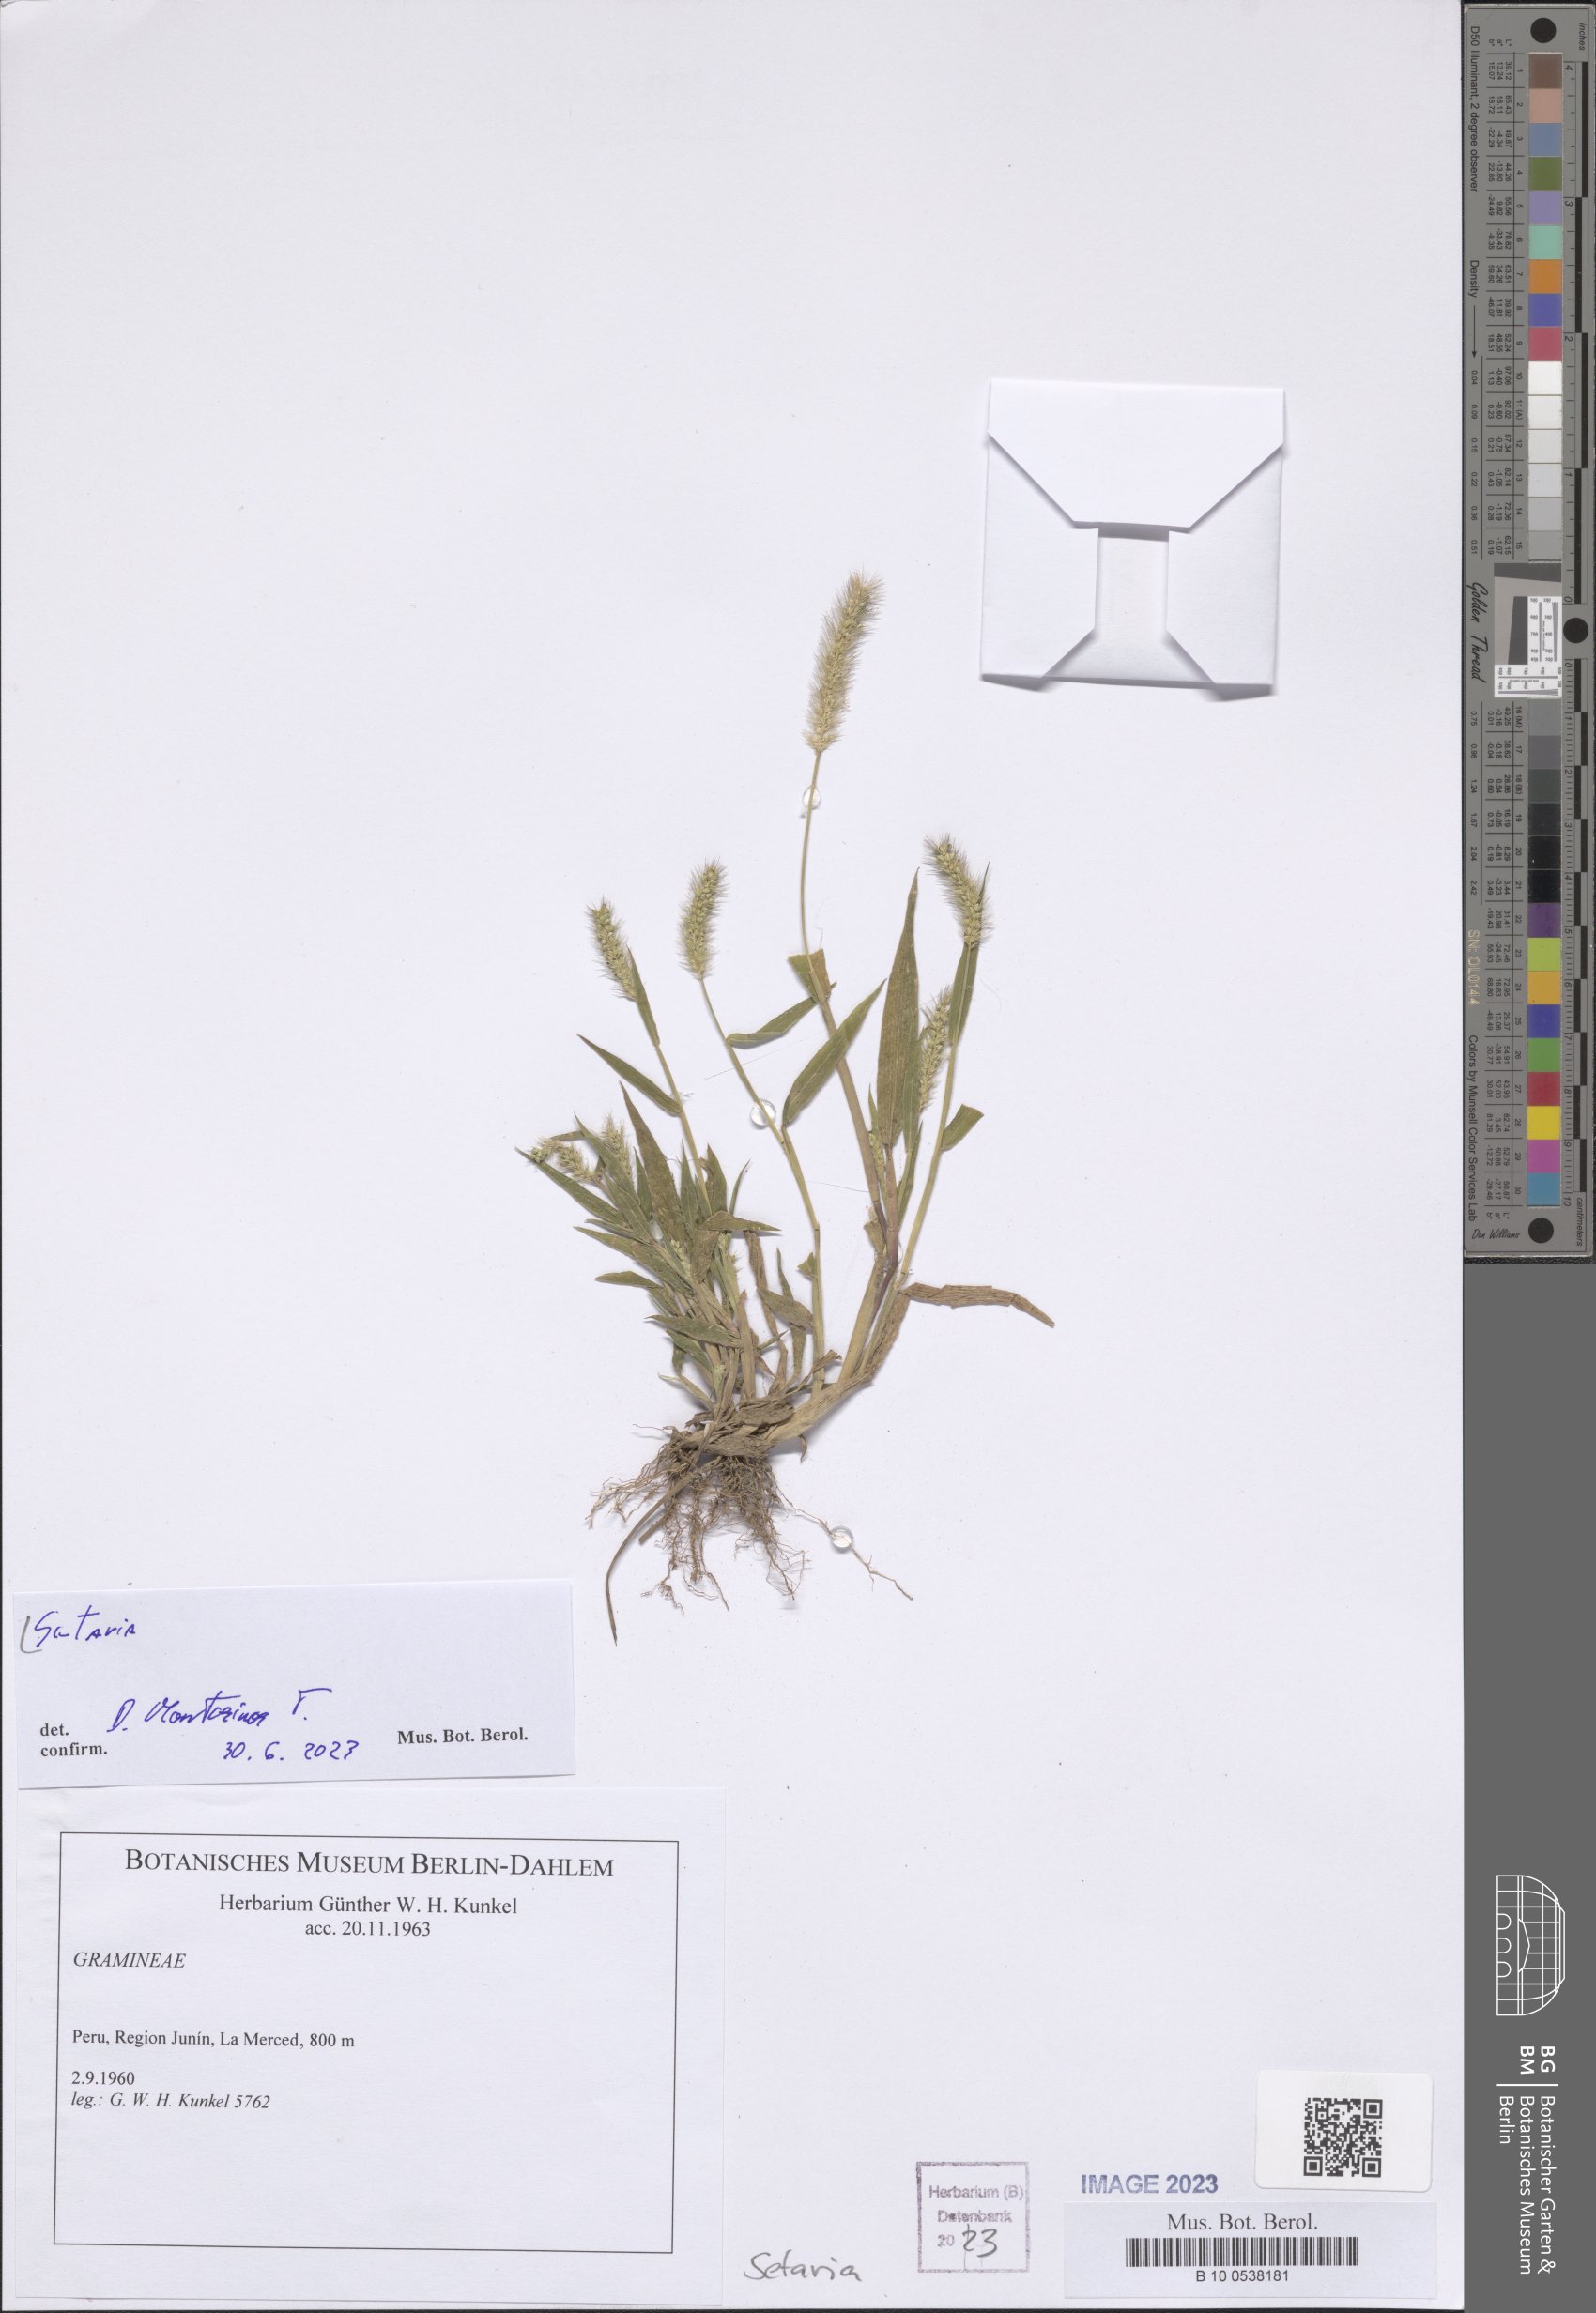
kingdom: Plantae
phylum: Tracheophyta
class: Liliopsida
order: Poales
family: Poaceae
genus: Setaria
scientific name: Setaria
